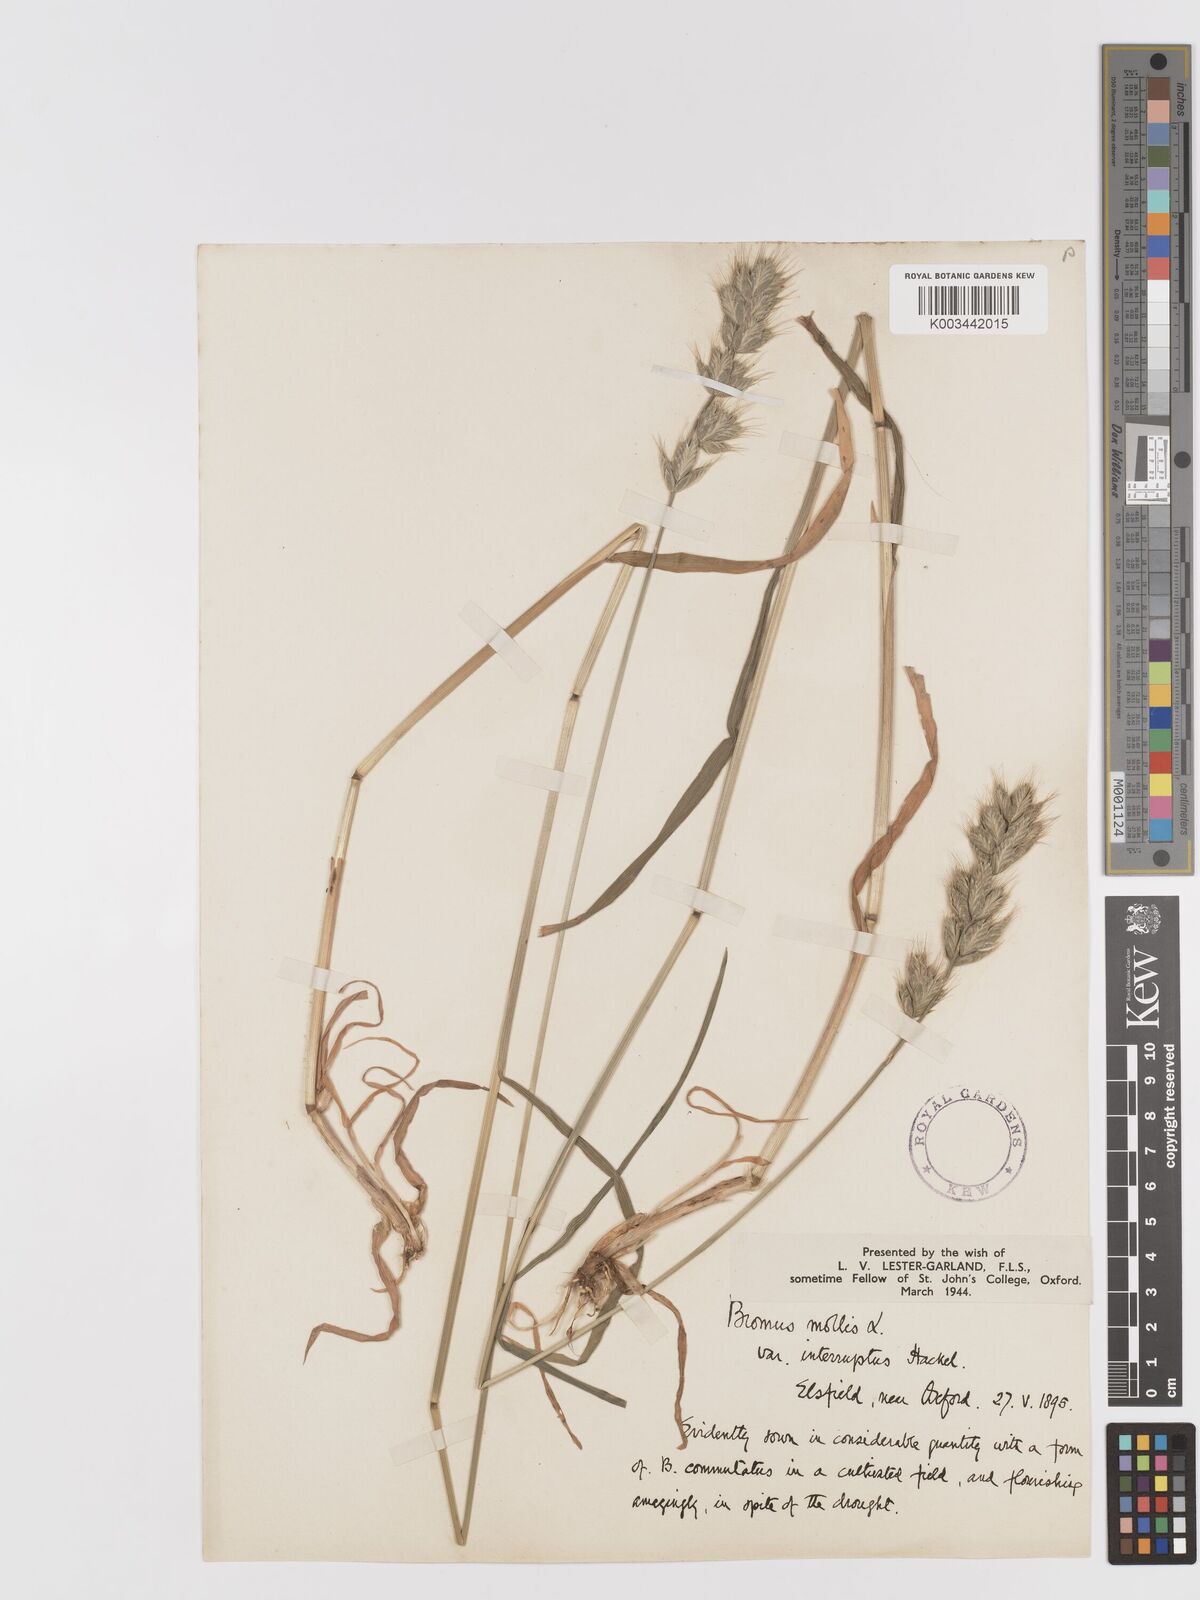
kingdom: Plantae
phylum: Tracheophyta
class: Liliopsida
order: Poales
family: Poaceae
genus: Bromus
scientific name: Bromus interruptus
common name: Interrupted brome
